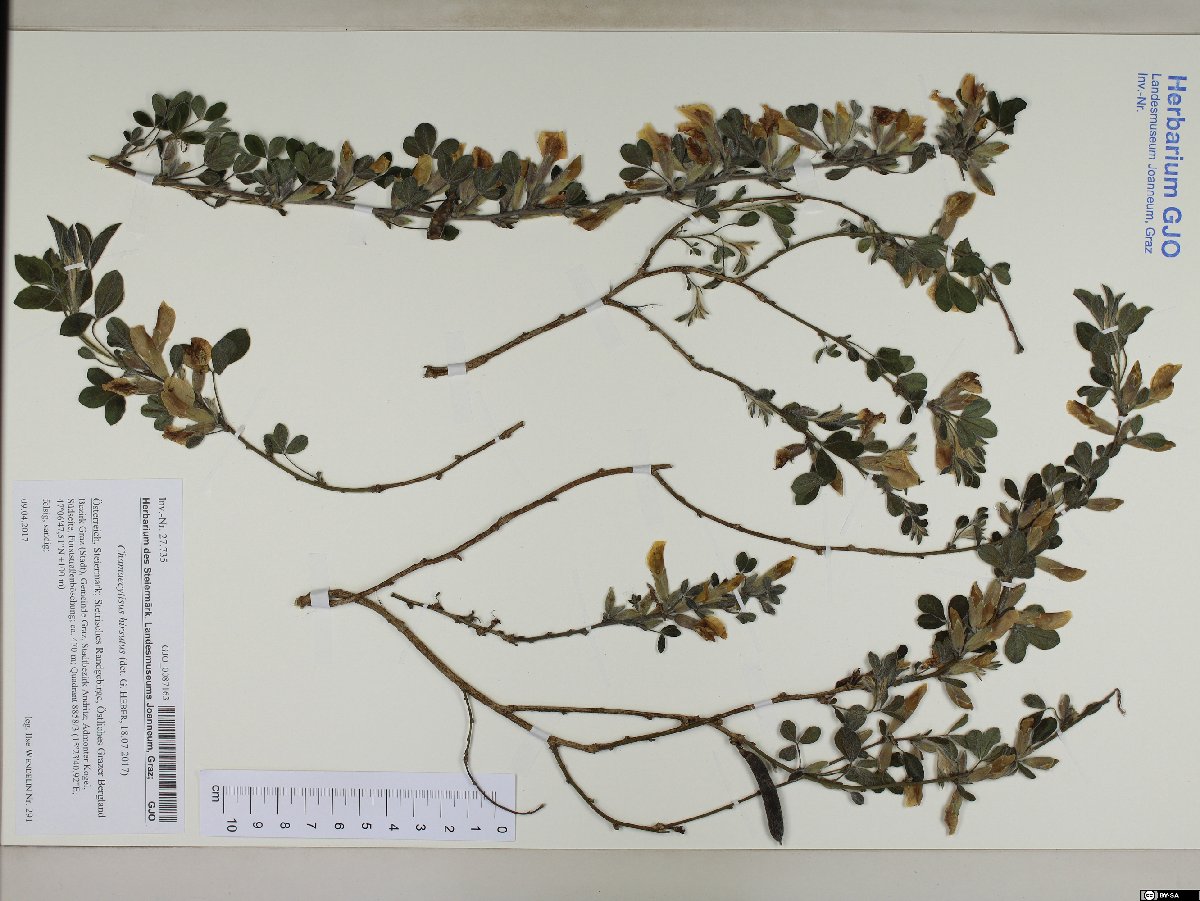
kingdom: Plantae
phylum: Tracheophyta
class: Magnoliopsida
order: Fabales
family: Fabaceae
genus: Chamaecytisus
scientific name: Chamaecytisus hirsutus
